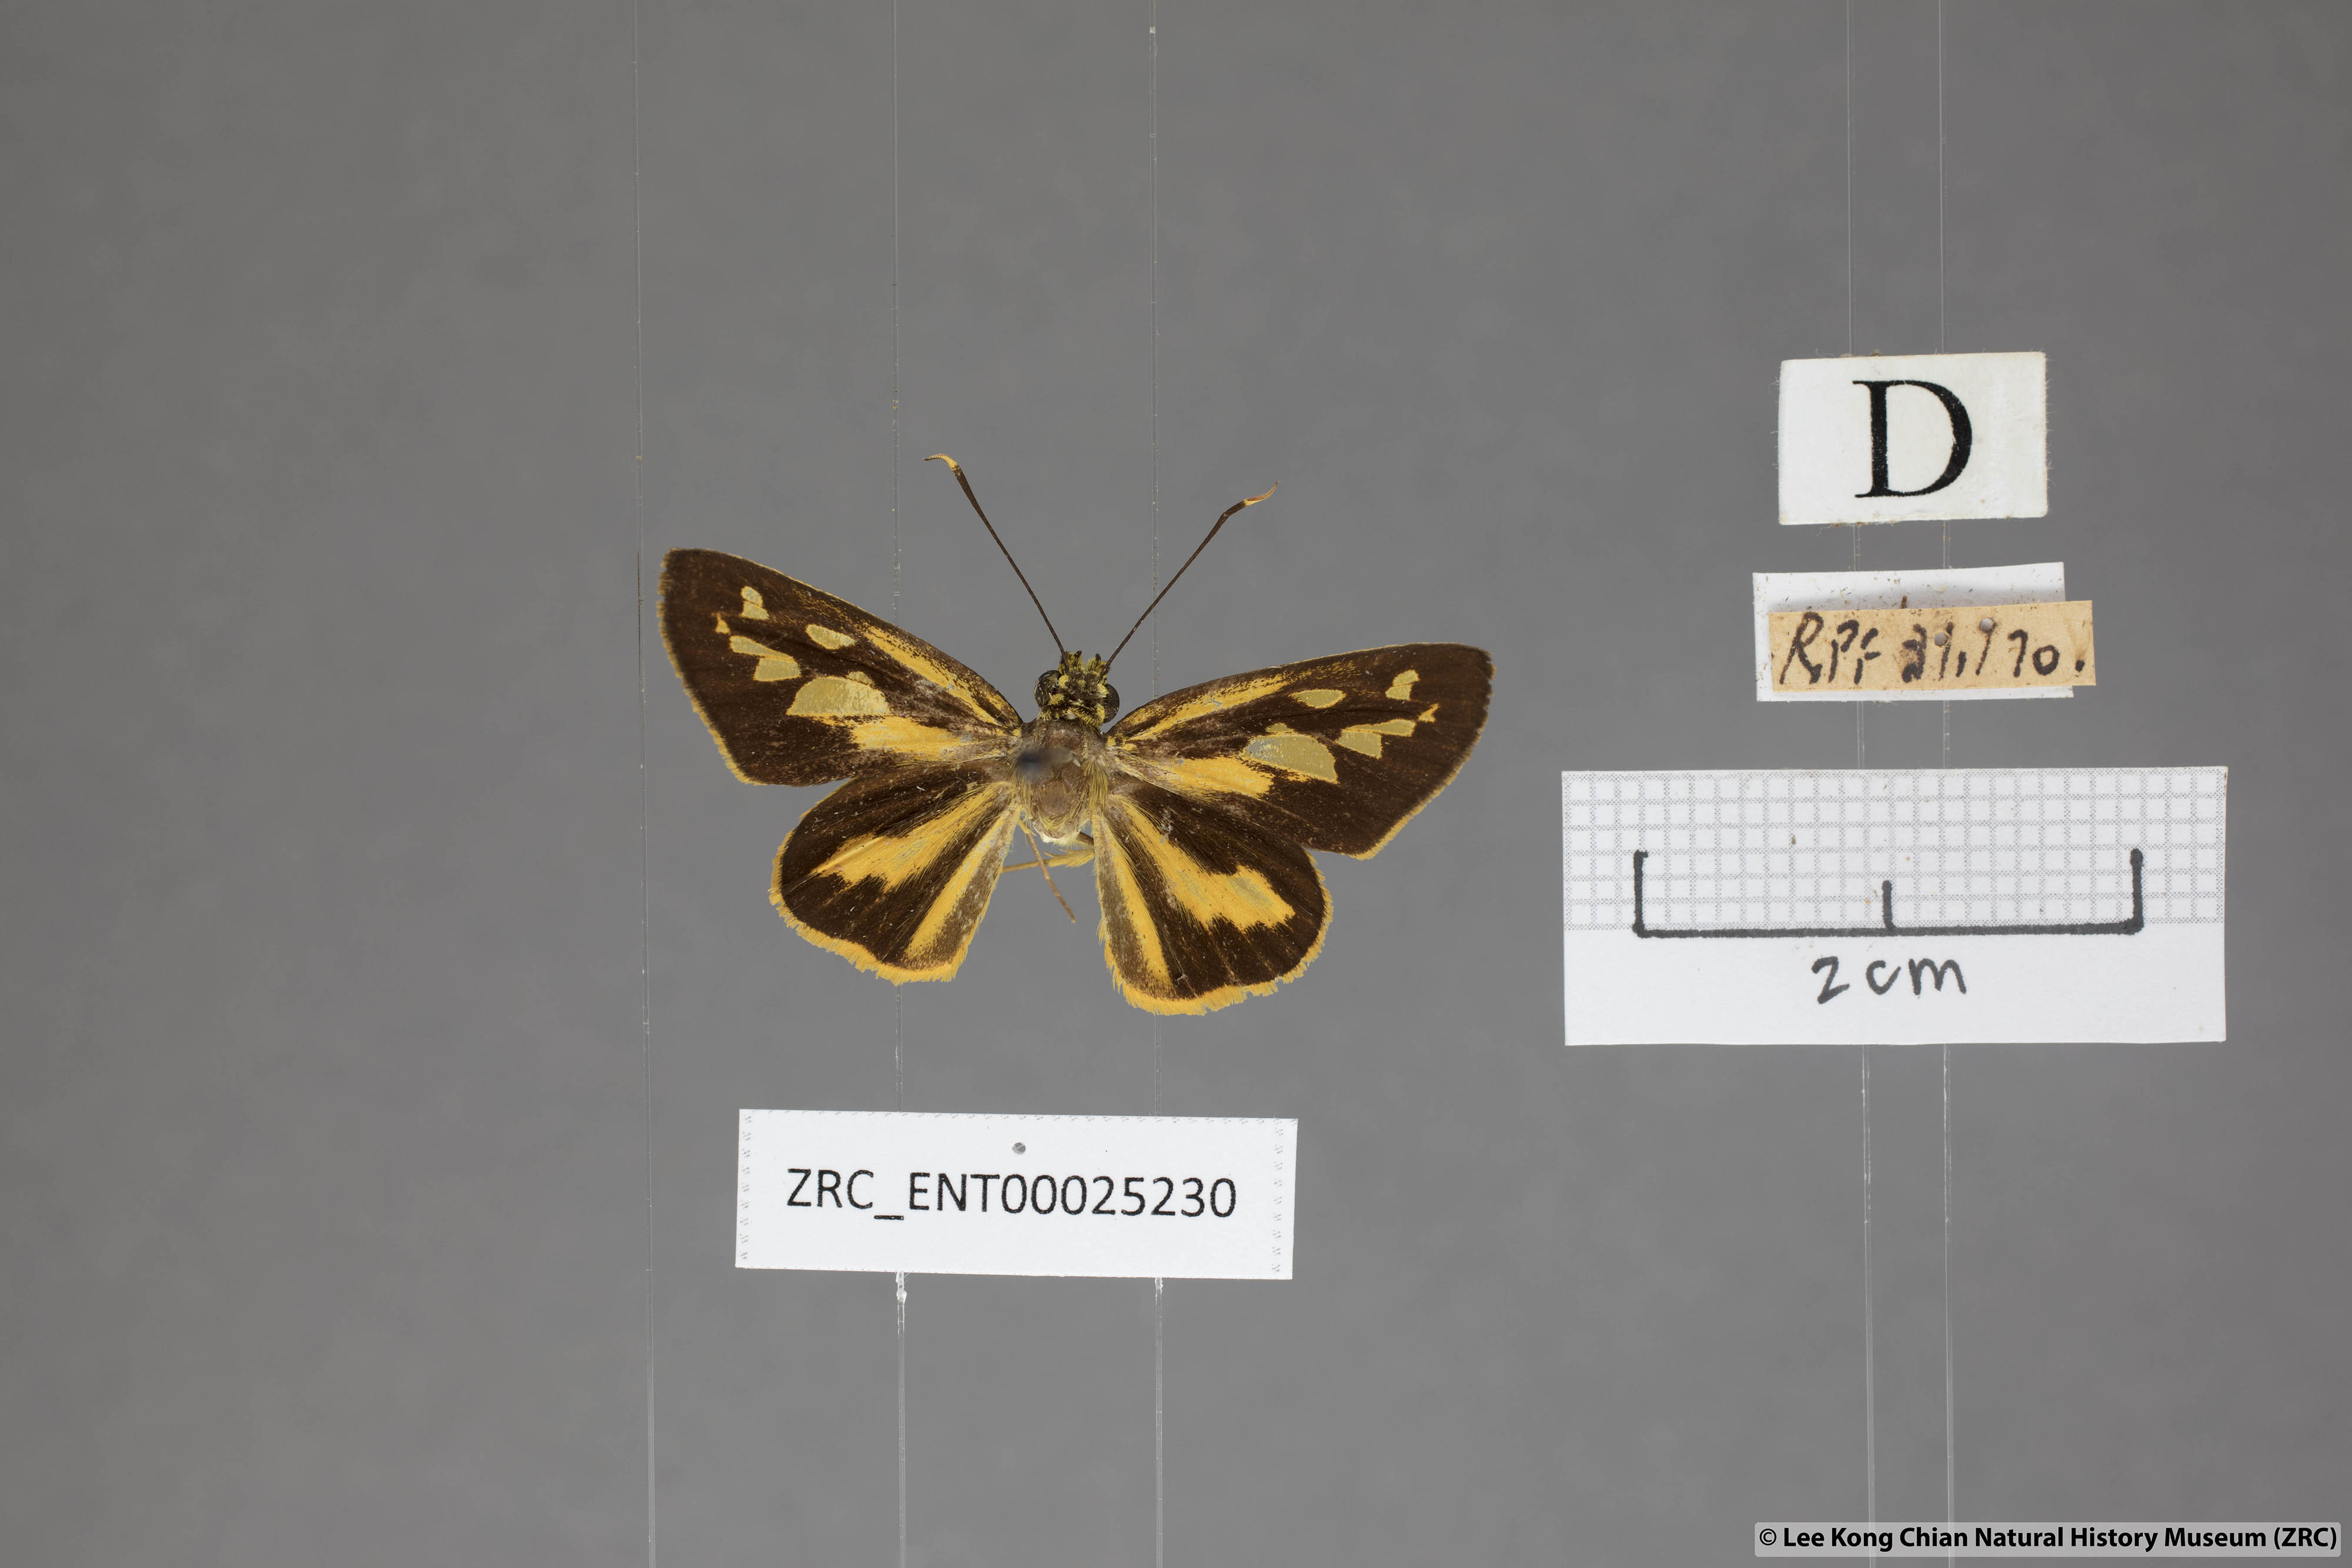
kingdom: Animalia
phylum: Arthropoda
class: Insecta
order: Lepidoptera
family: Hesperiidae
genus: Pyroneura
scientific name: Pyroneura flavia
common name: Lesser lancer
